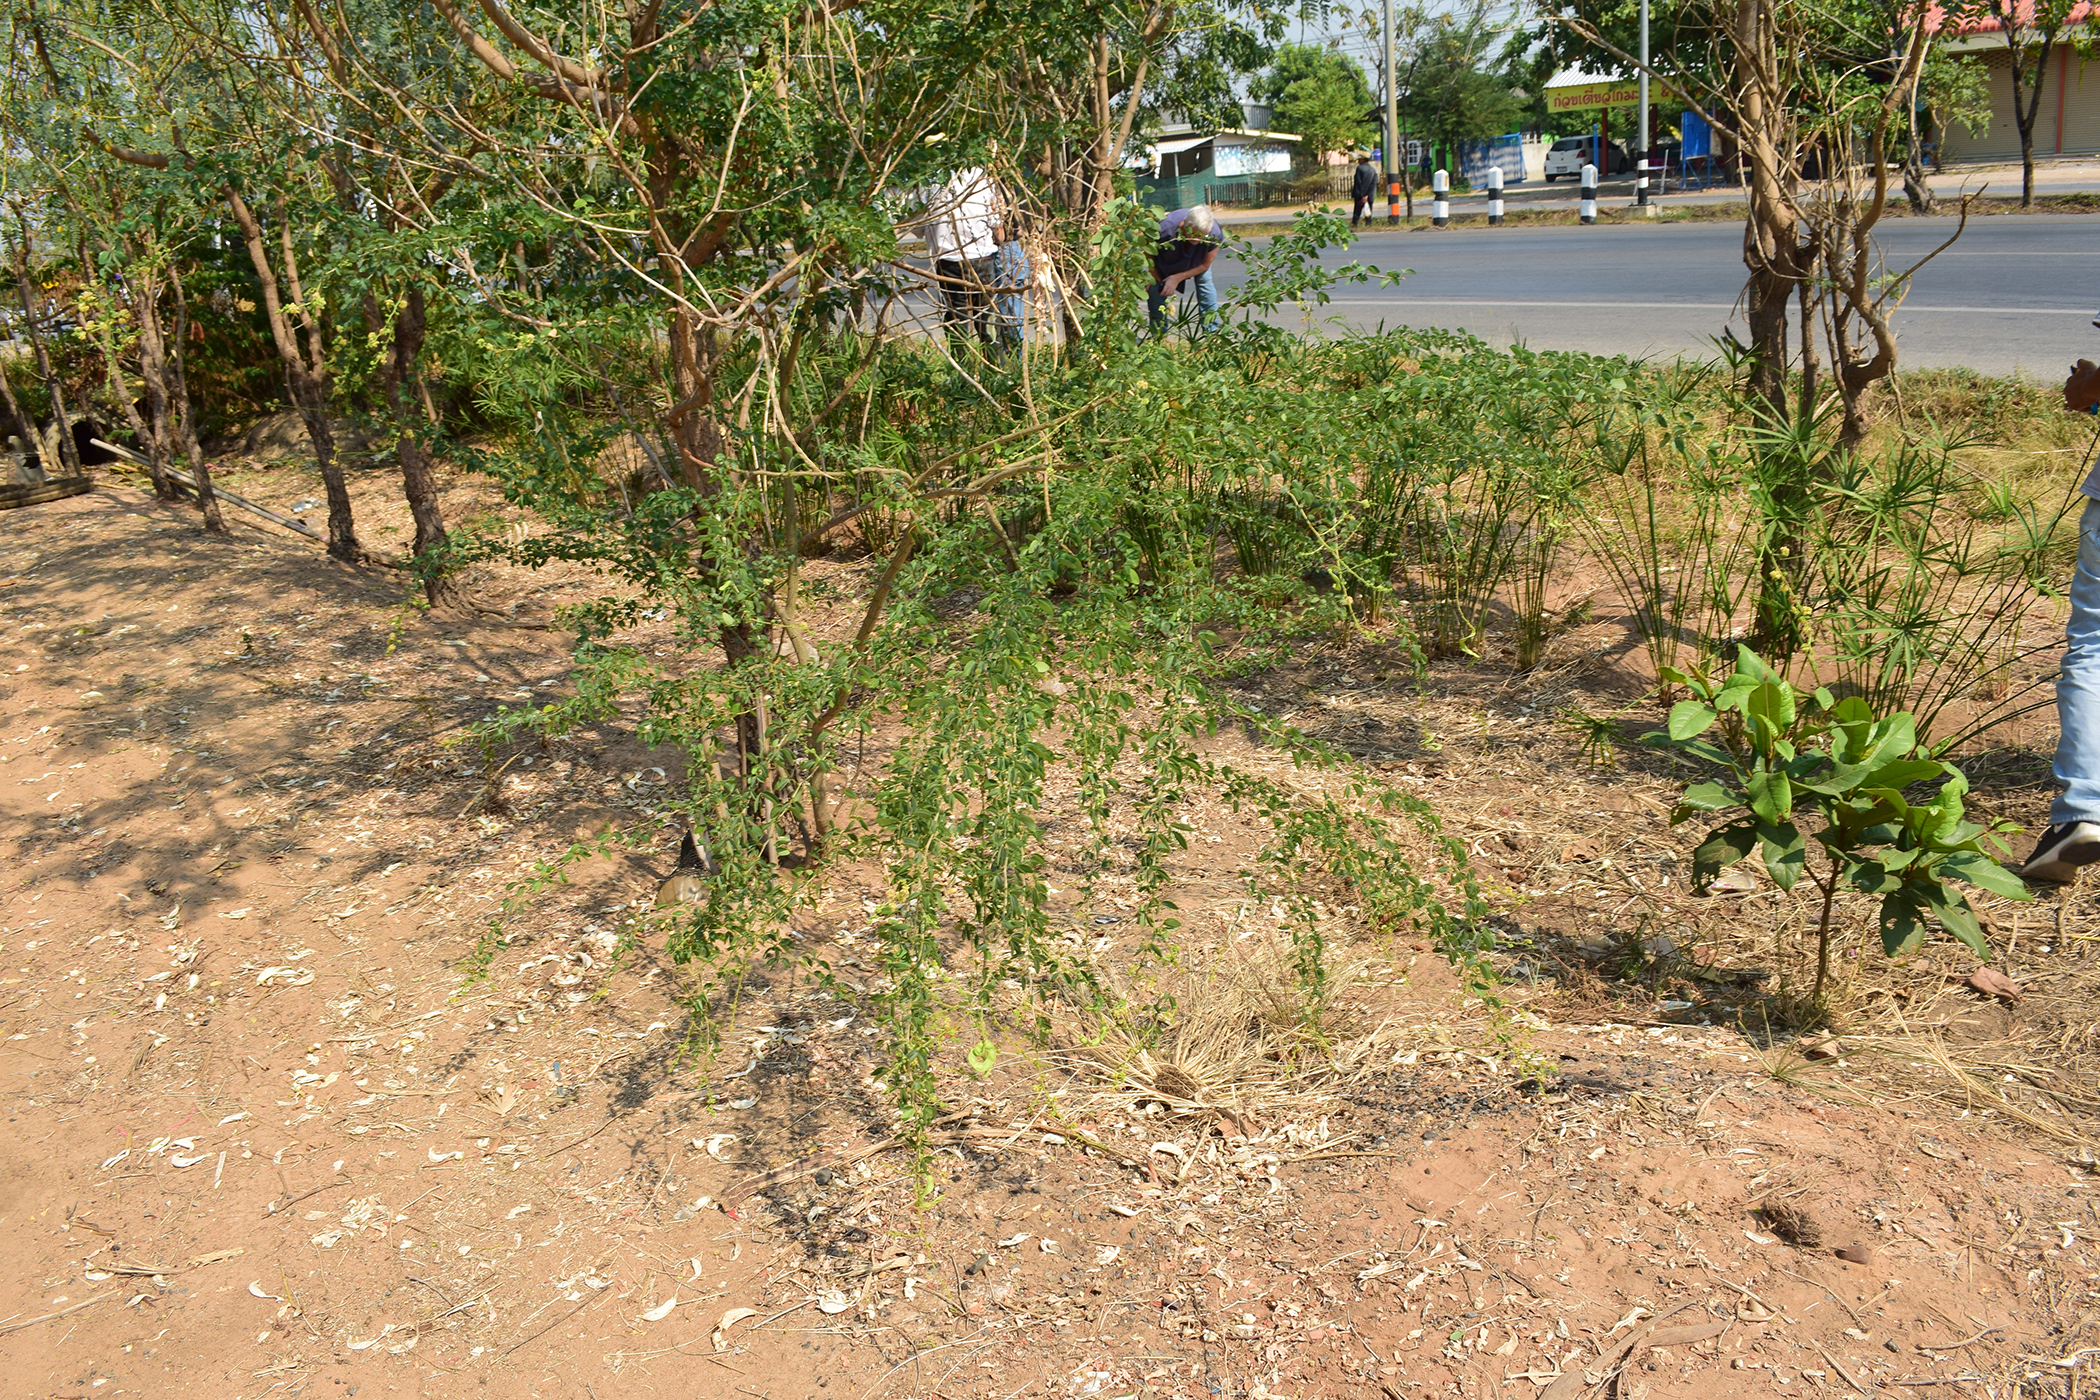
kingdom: Plantae
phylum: Tracheophyta
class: Magnoliopsida
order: Fabales
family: Fabaceae
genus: Pithecellobium
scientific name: Pithecellobium dulce
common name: Monkeypod
